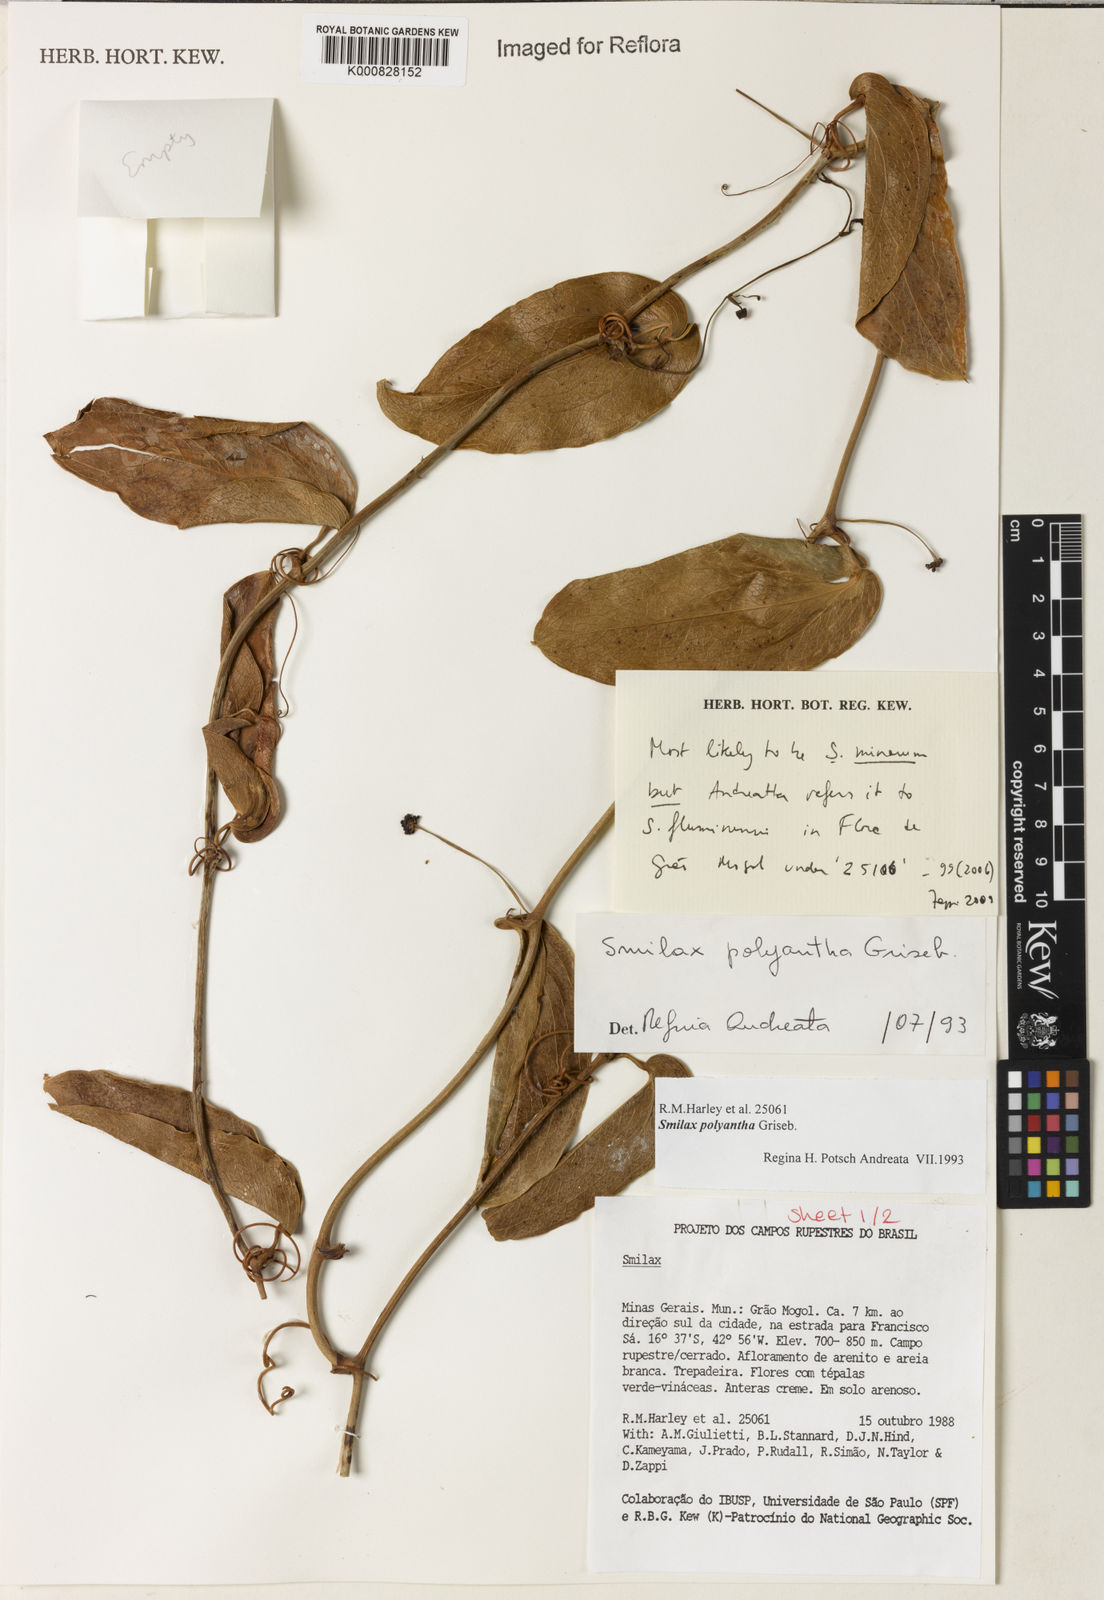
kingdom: Plantae
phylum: Tracheophyta
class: Liliopsida
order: Liliales
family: Smilacaceae
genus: Smilax
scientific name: Smilax minarum
